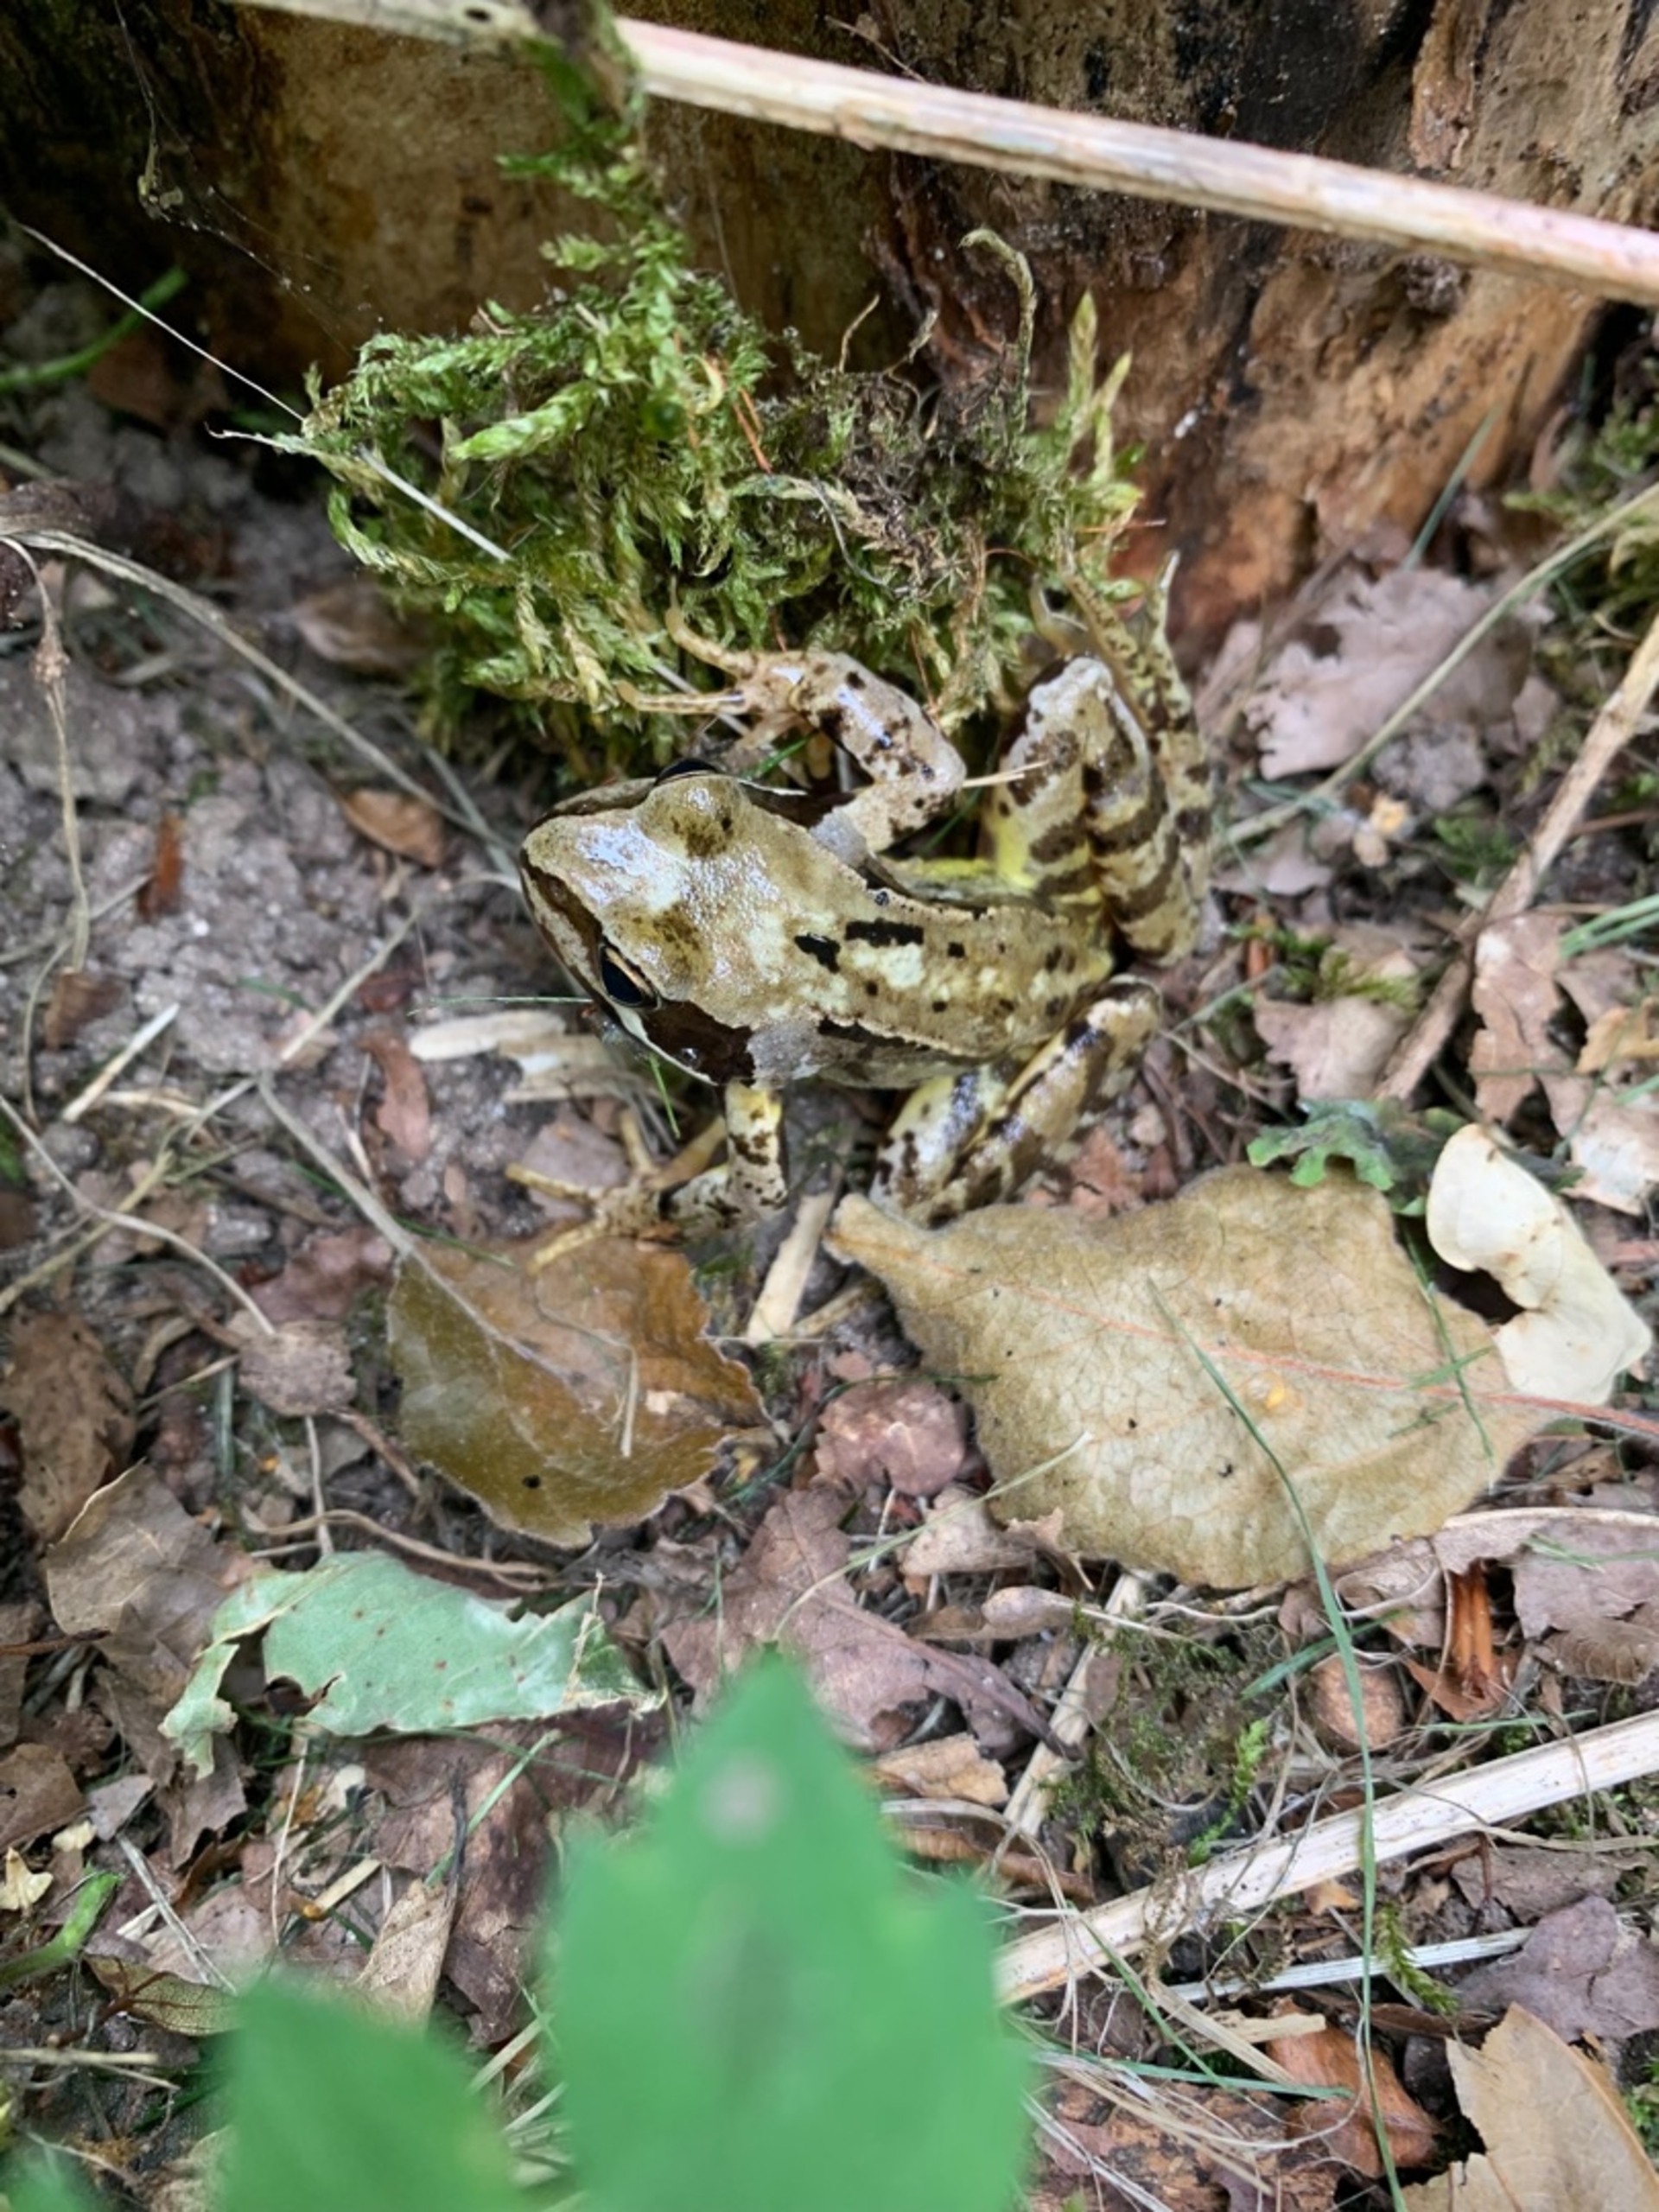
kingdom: Animalia
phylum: Chordata
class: Amphibia
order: Anura
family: Ranidae
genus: Rana
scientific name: Rana temporaria
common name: Butsnudet frø
